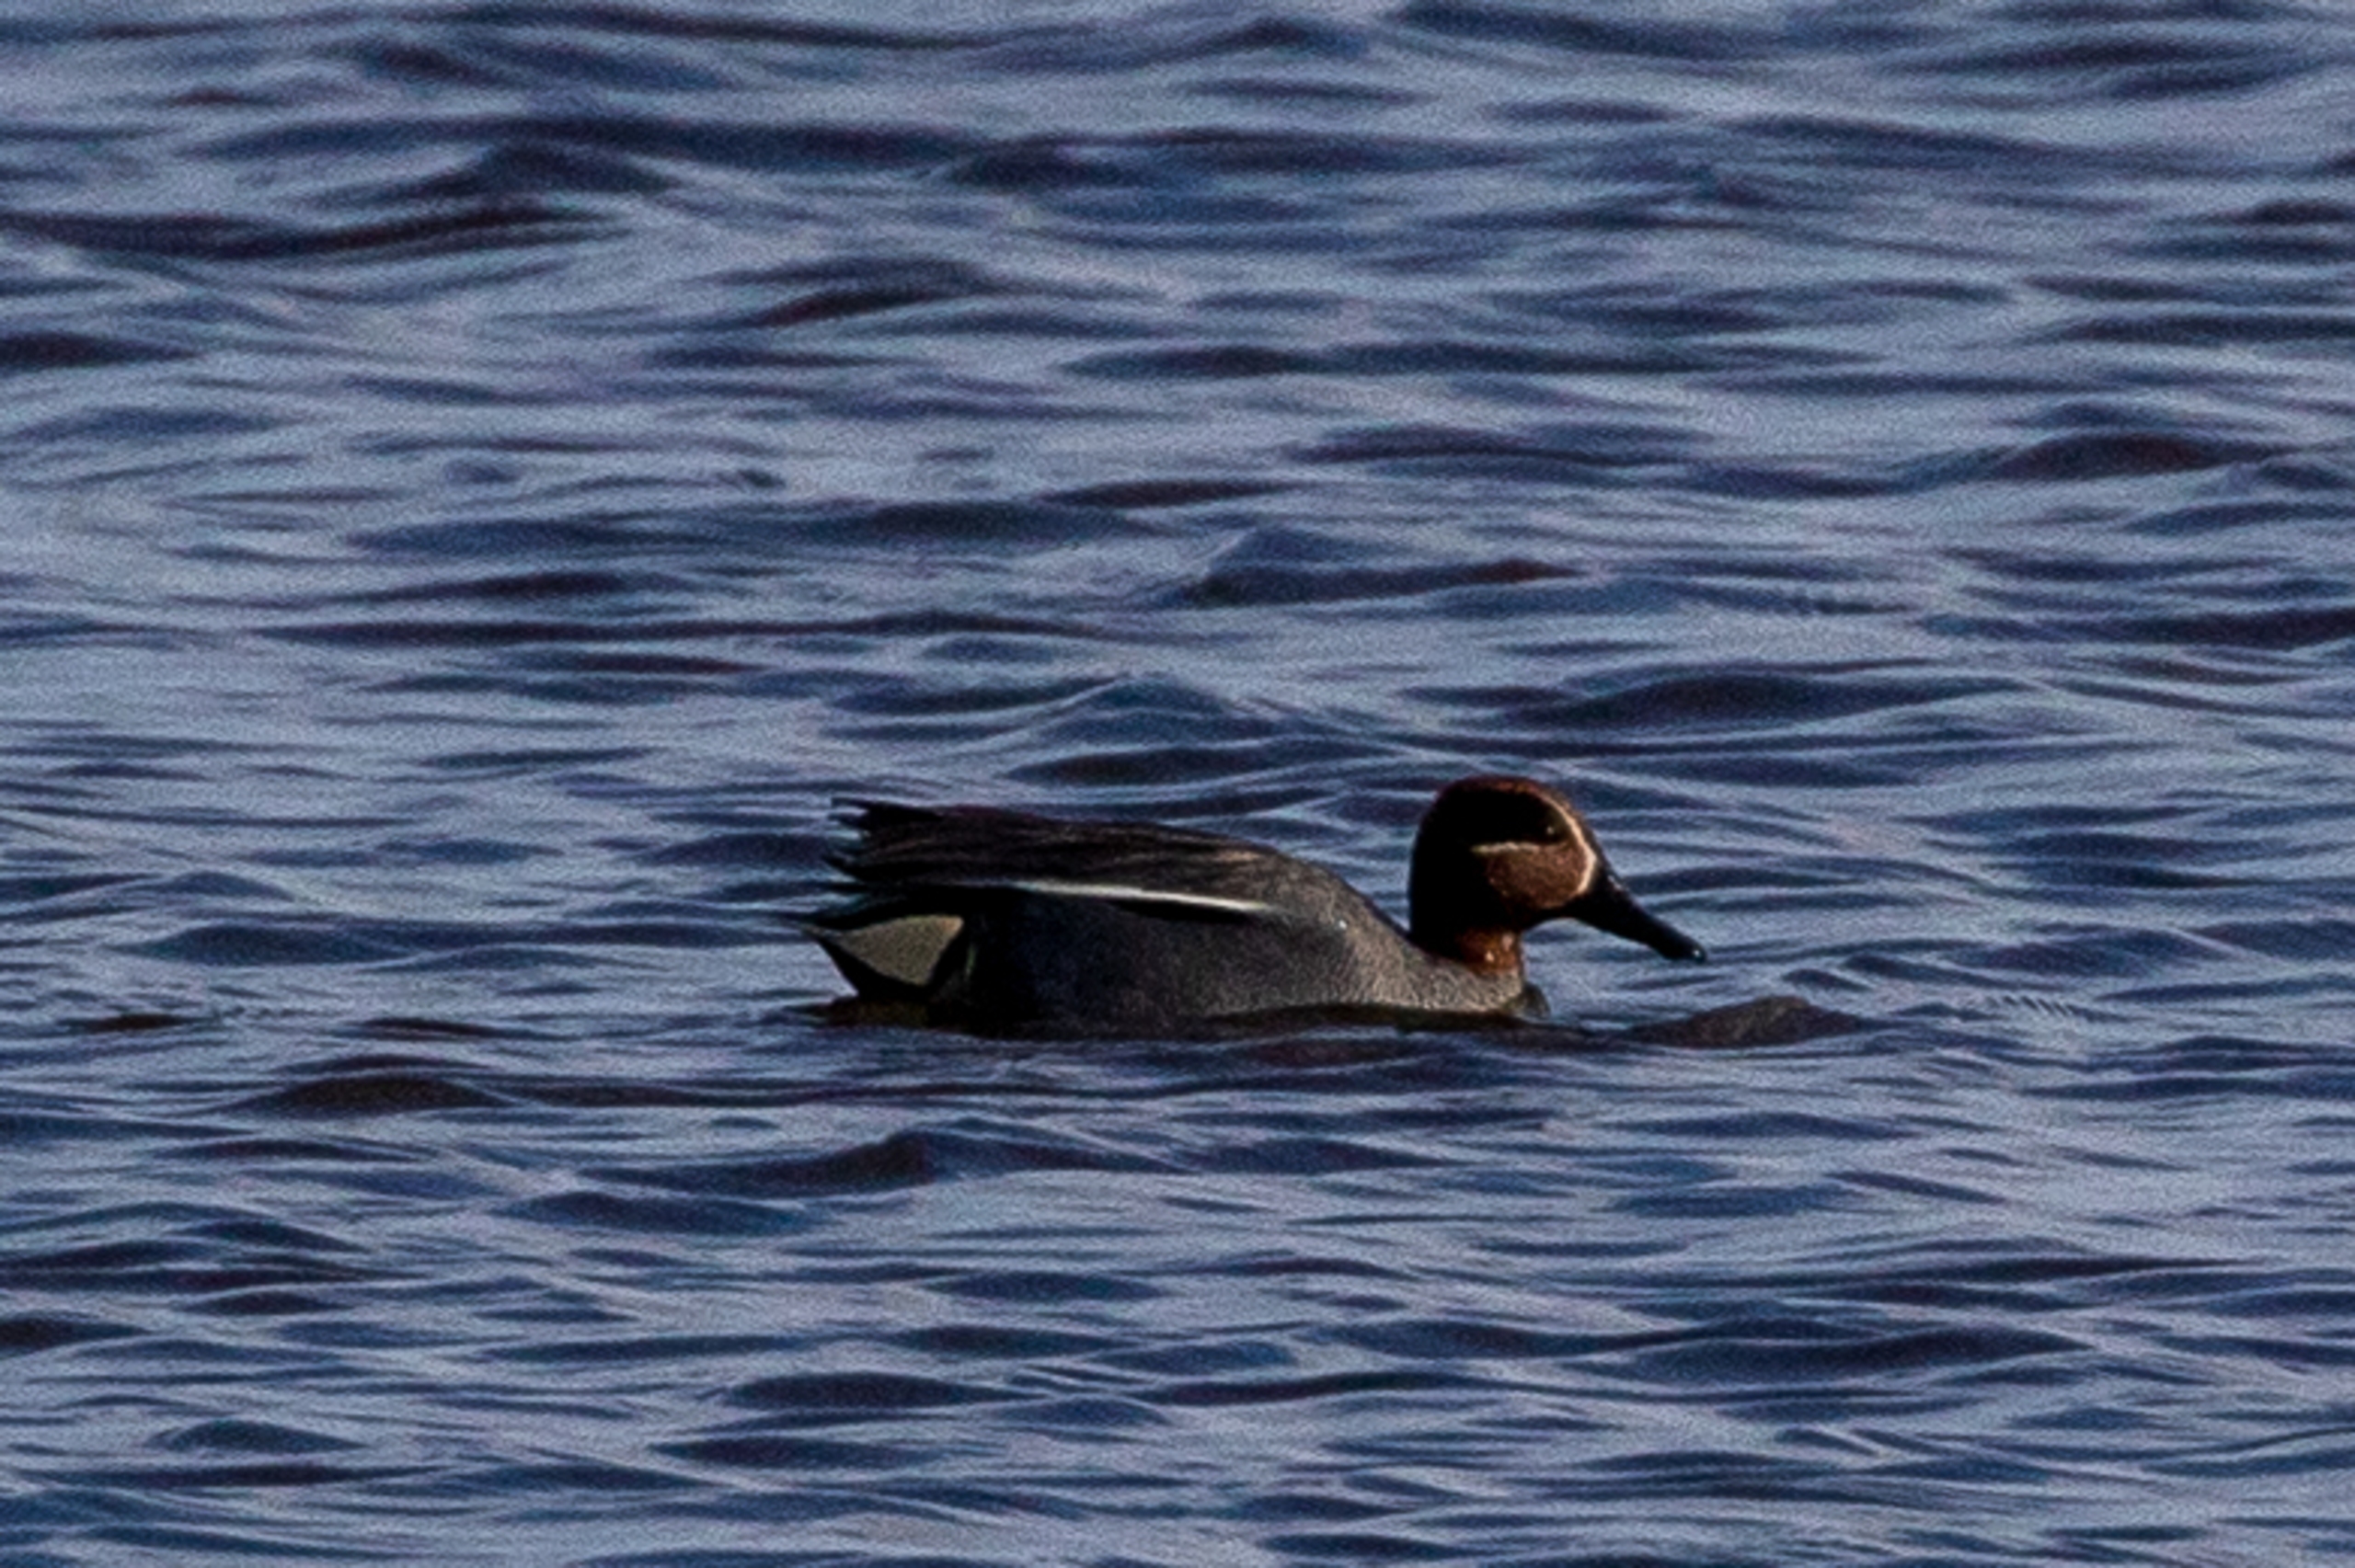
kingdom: Animalia
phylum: Chordata
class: Aves
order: Anseriformes
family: Anatidae
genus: Anas
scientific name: Anas crecca
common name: Krikand
